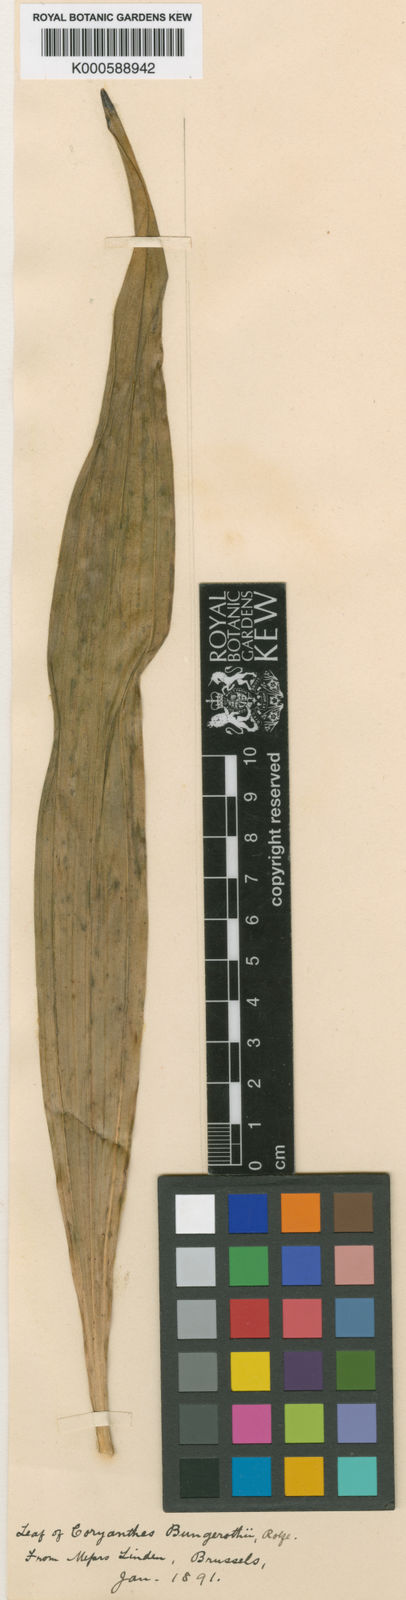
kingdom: Plantae
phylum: Tracheophyta
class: Liliopsida
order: Asparagales
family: Orchidaceae
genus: Coryanthes
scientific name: Coryanthes bruchmuelleri
